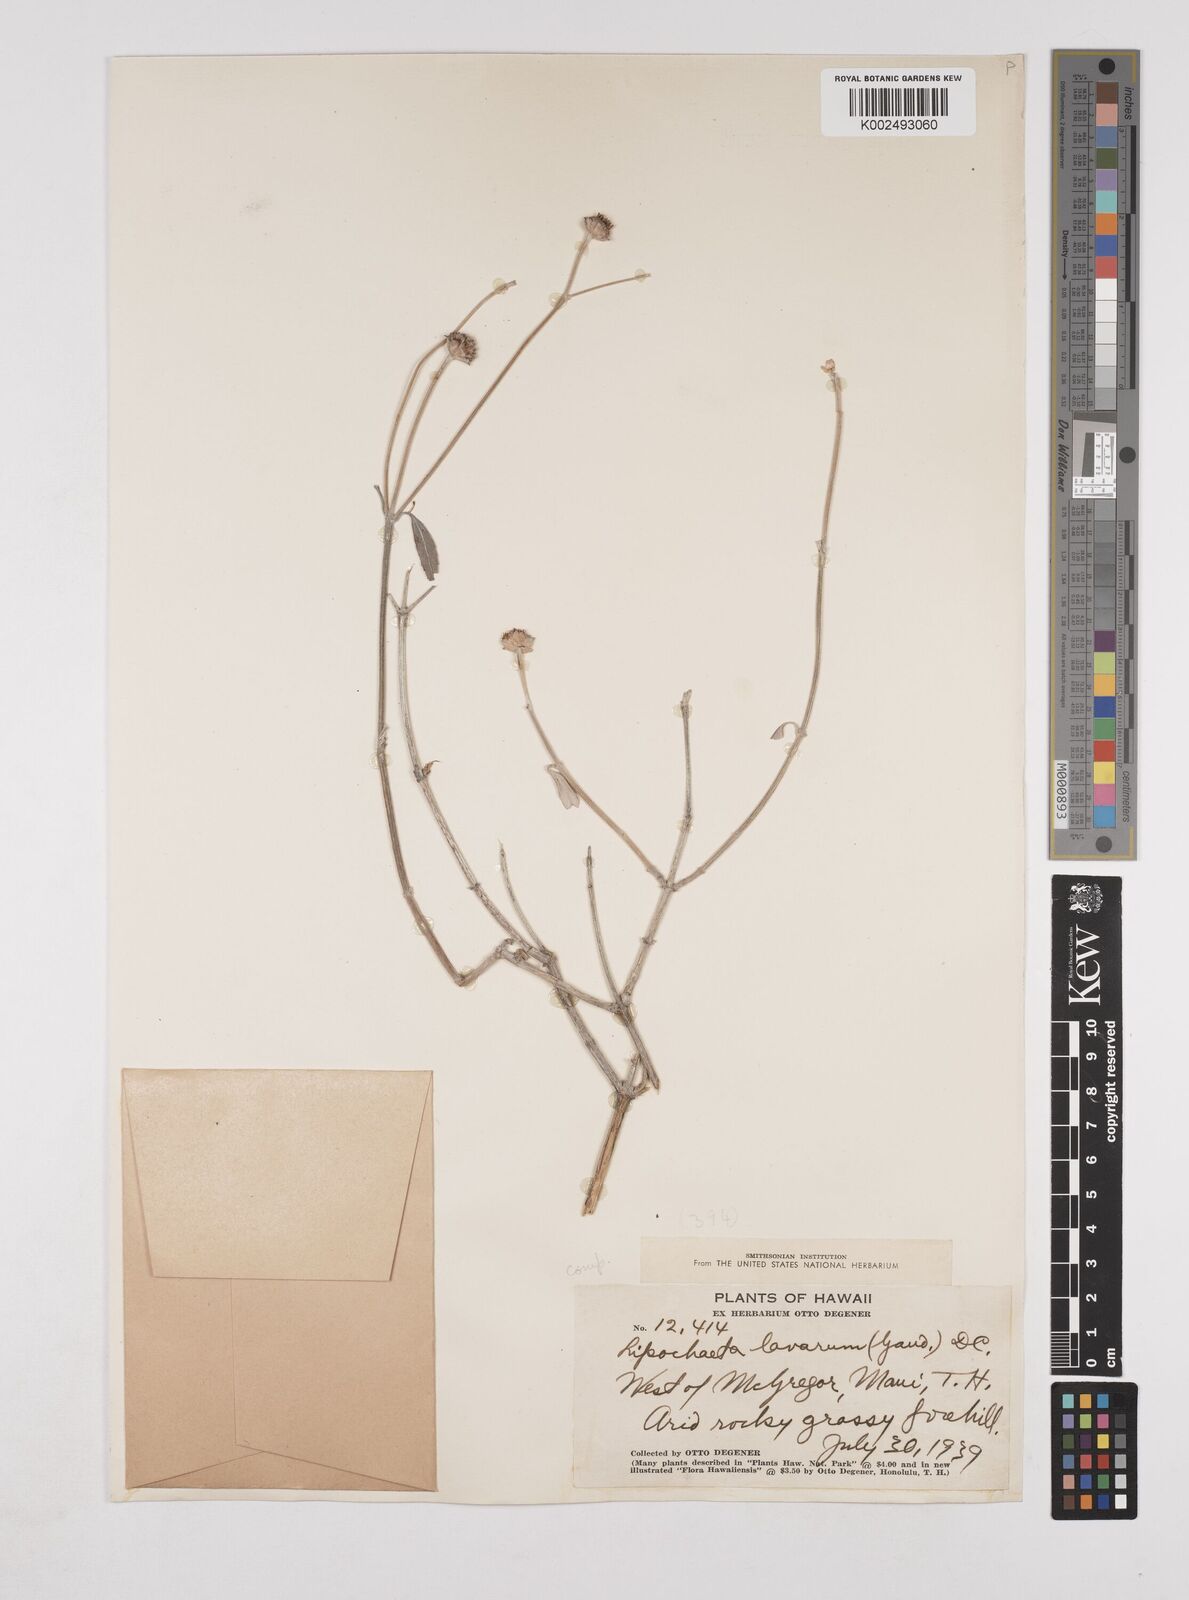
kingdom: Plantae
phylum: Tracheophyta
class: Magnoliopsida
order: Asterales
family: Asteraceae
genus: Lipochaeta
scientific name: Lipochaeta lavarum
